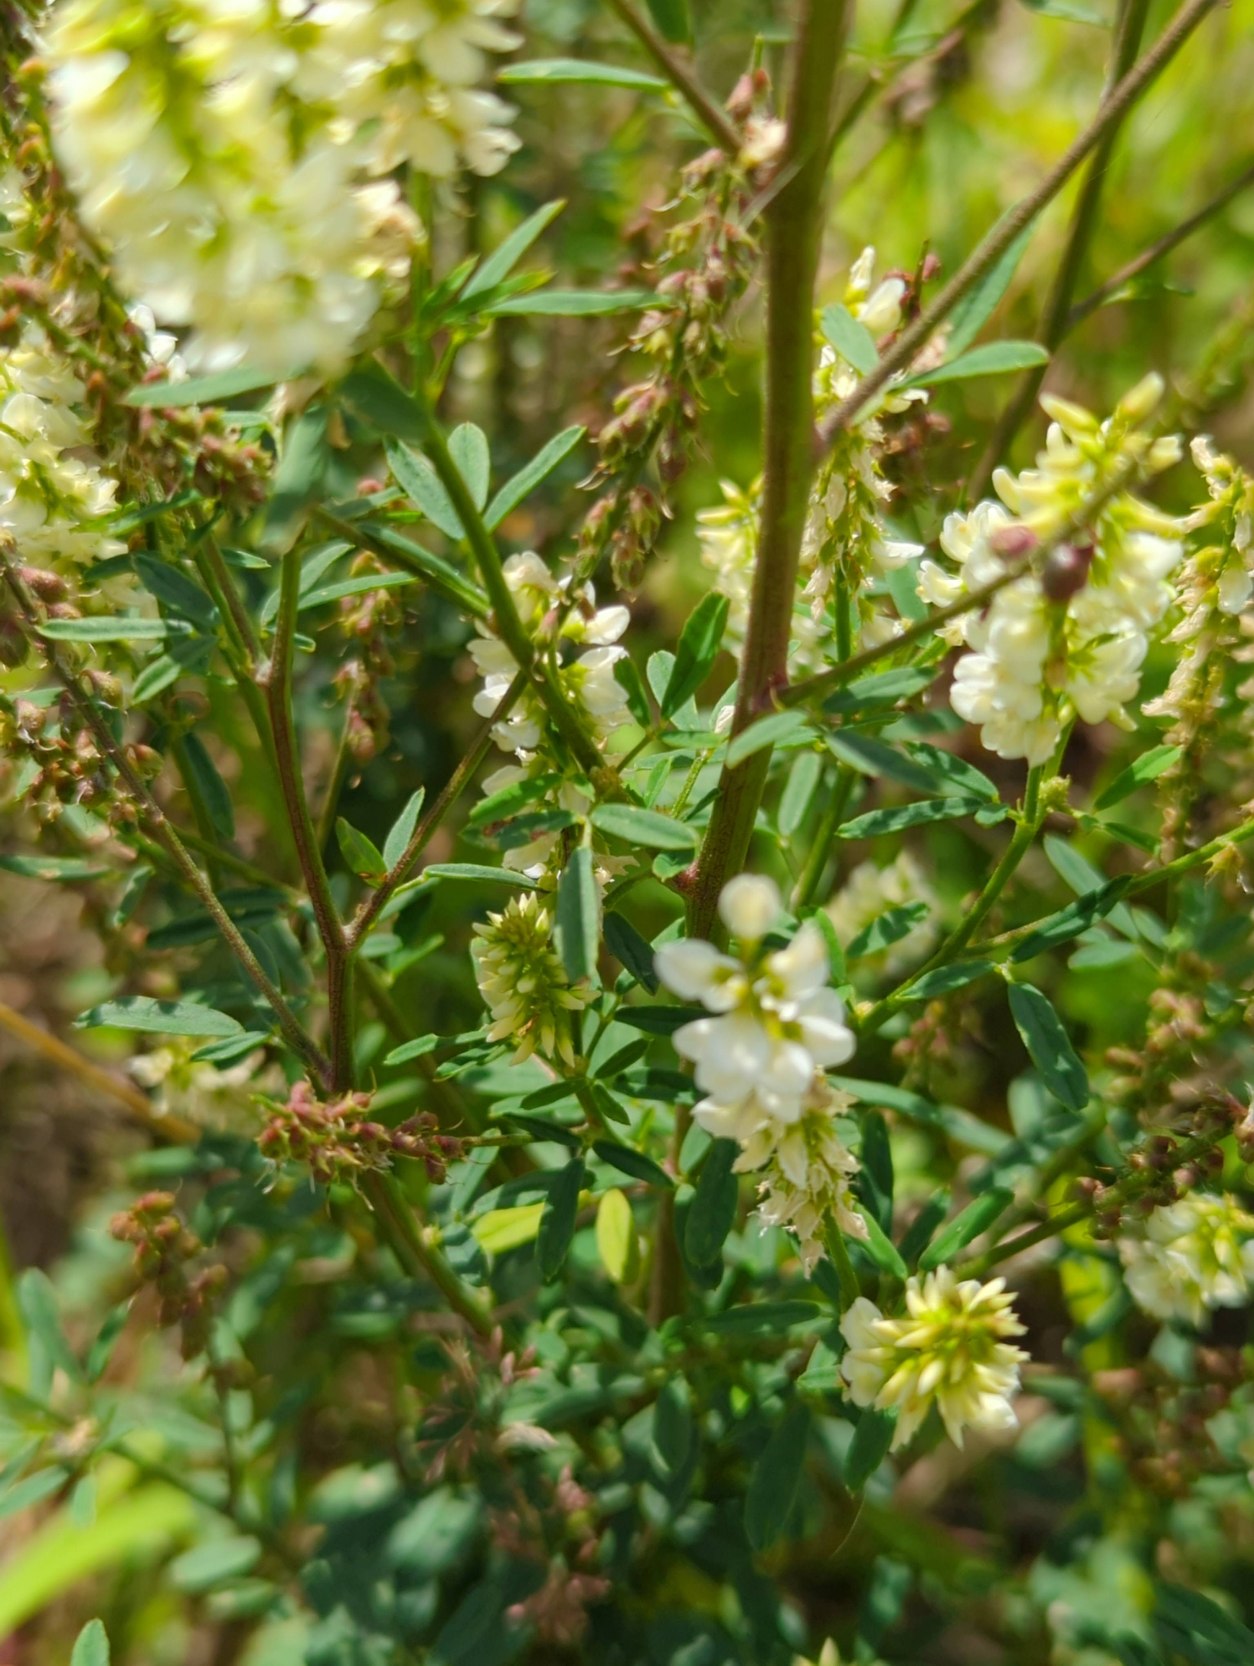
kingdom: Plantae
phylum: Tracheophyta
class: Magnoliopsida
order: Fabales
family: Fabaceae
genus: Melilotus
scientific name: Melilotus albus
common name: Hvid stenkløver
